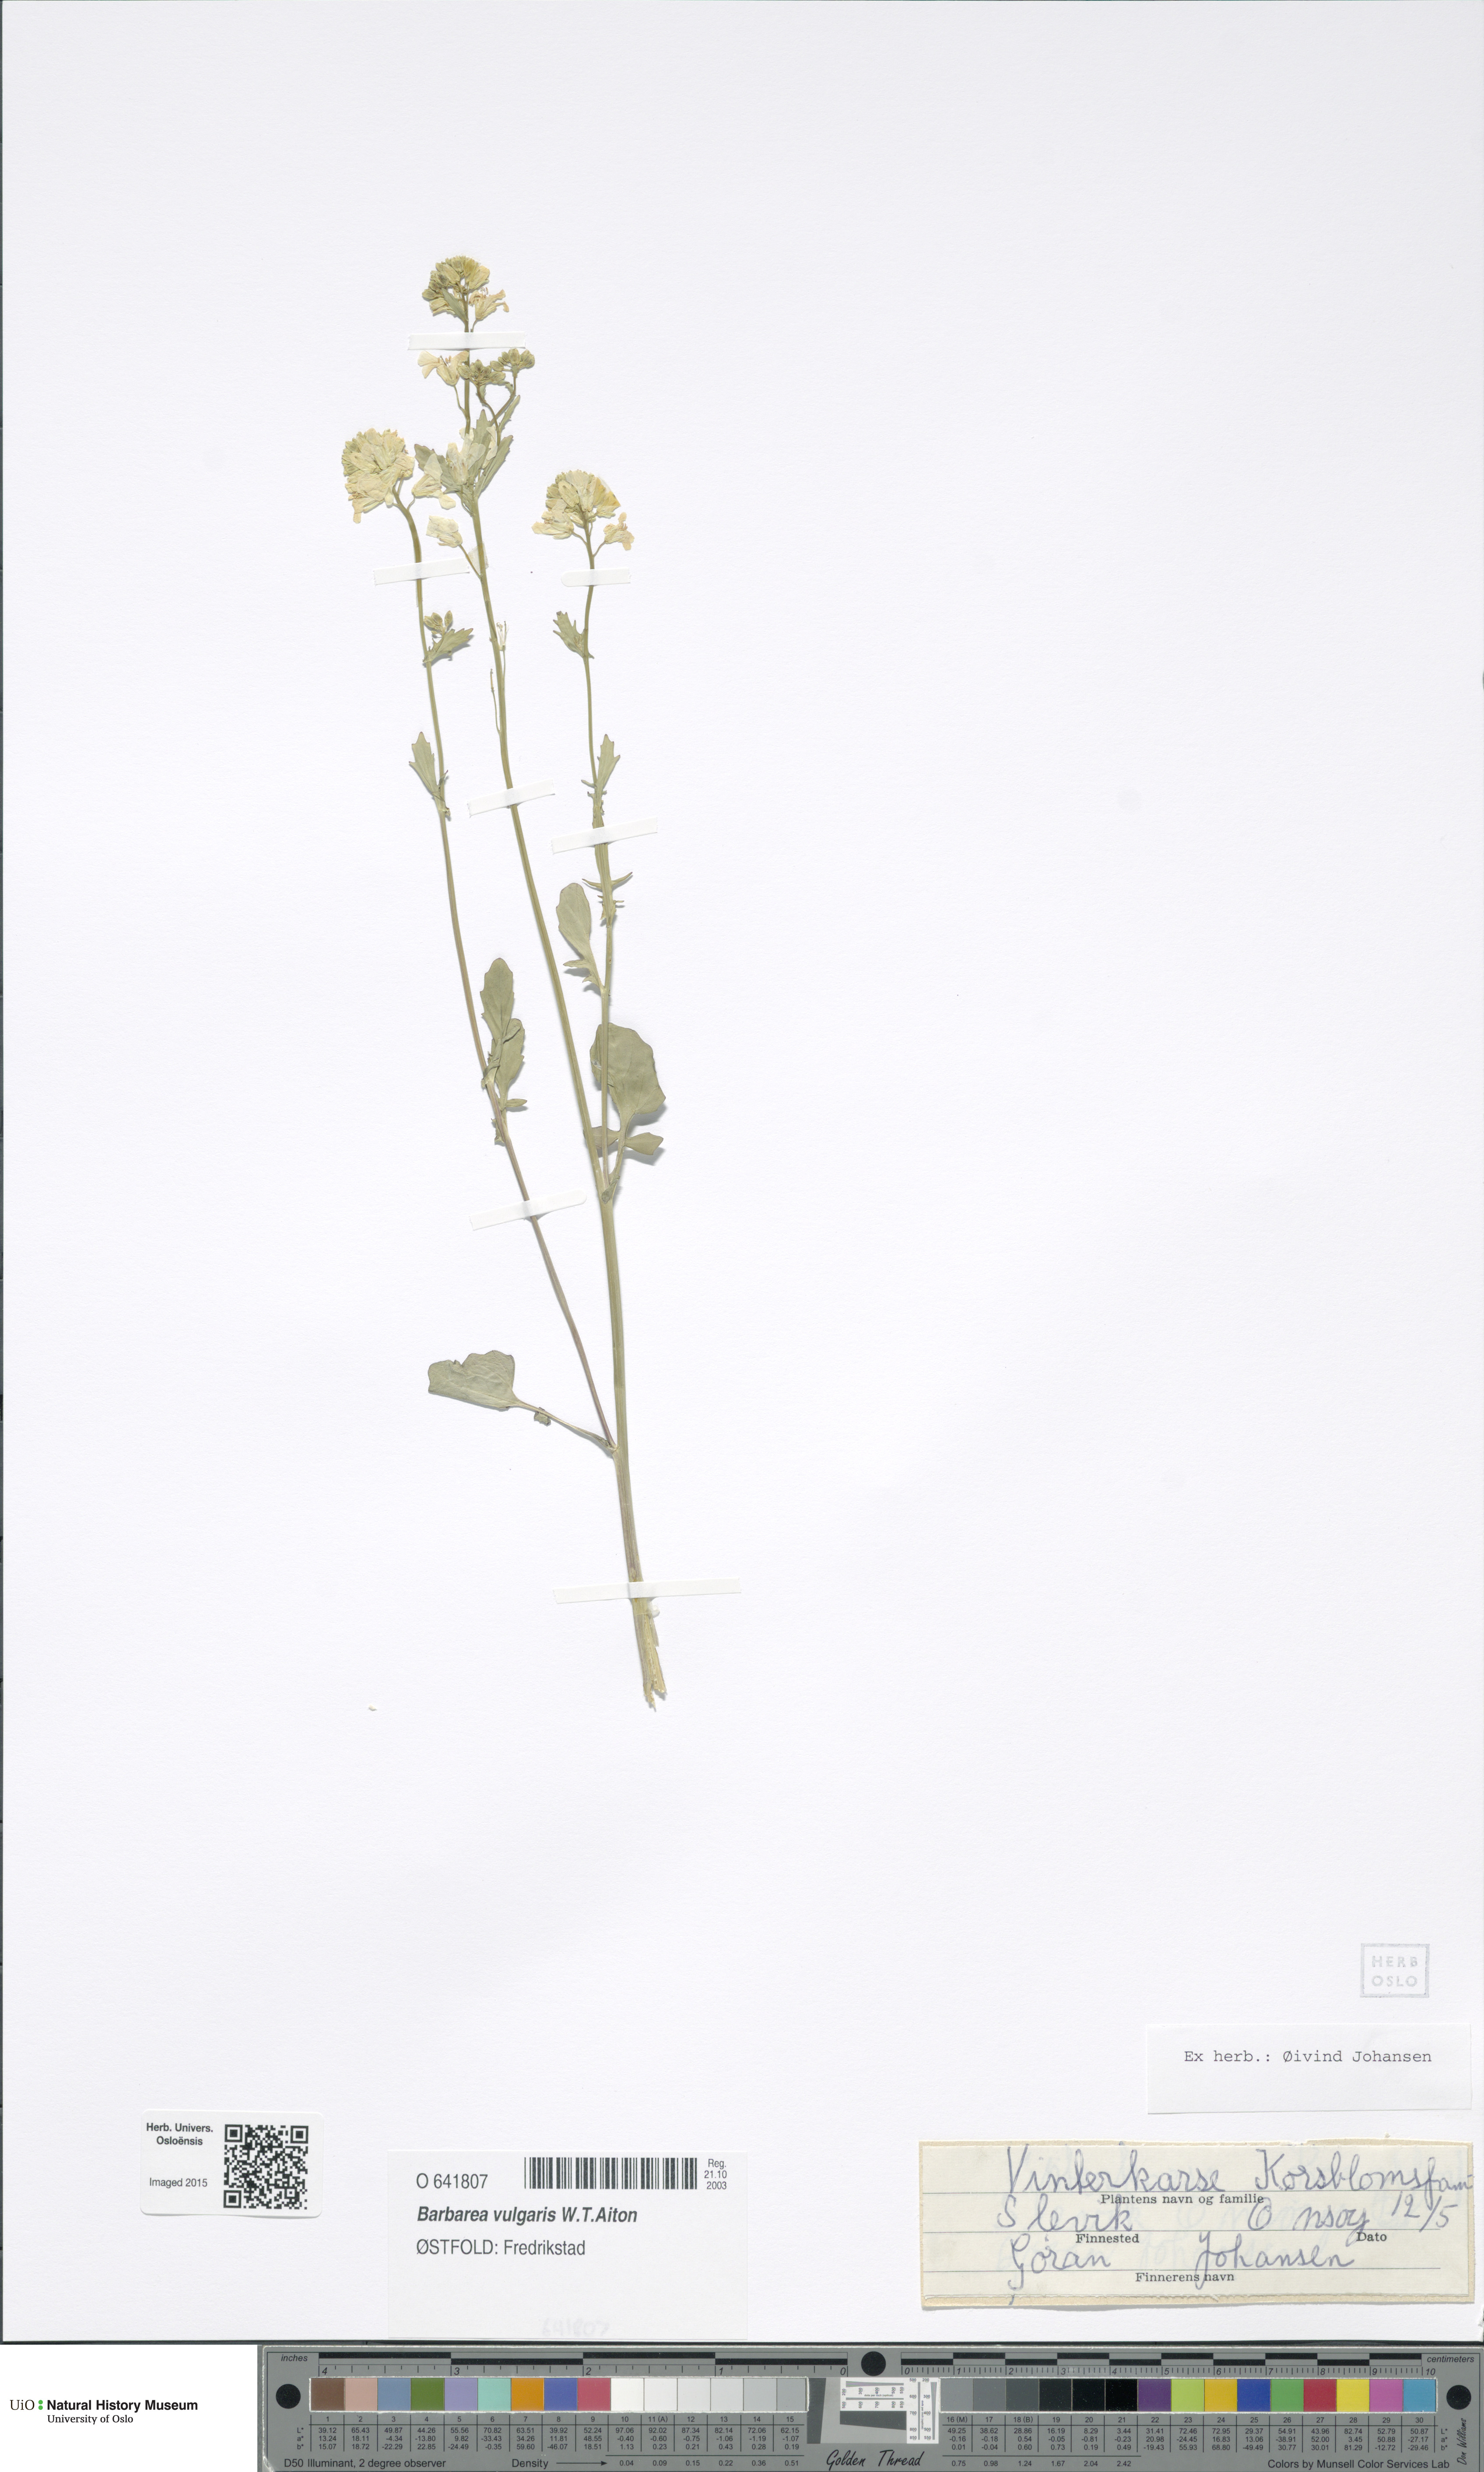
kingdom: Plantae
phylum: Tracheophyta
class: Magnoliopsida
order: Brassicales
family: Brassicaceae
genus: Barbarea
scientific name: Barbarea vulgaris
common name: Cressy-greens
